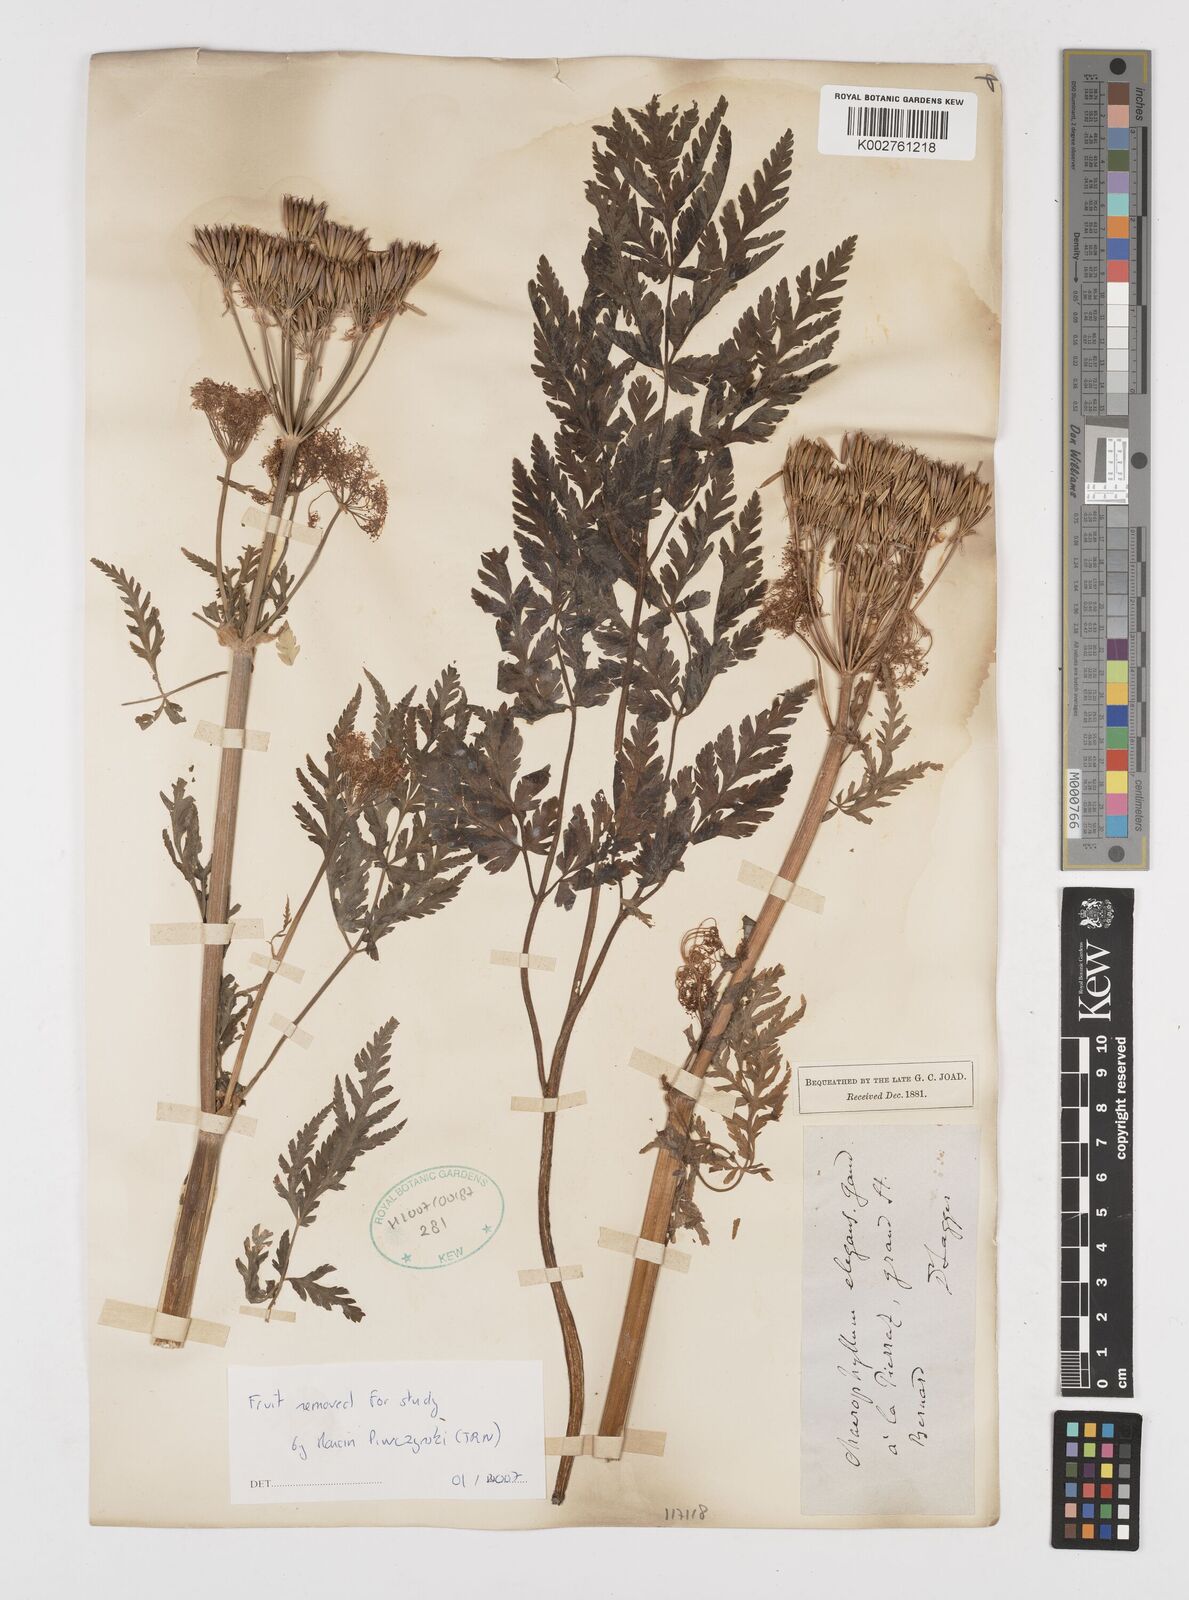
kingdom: Plantae
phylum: Tracheophyta
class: Magnoliopsida
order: Apiales
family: Apiaceae
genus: Chaerophyllum
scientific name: Chaerophyllum elegans
